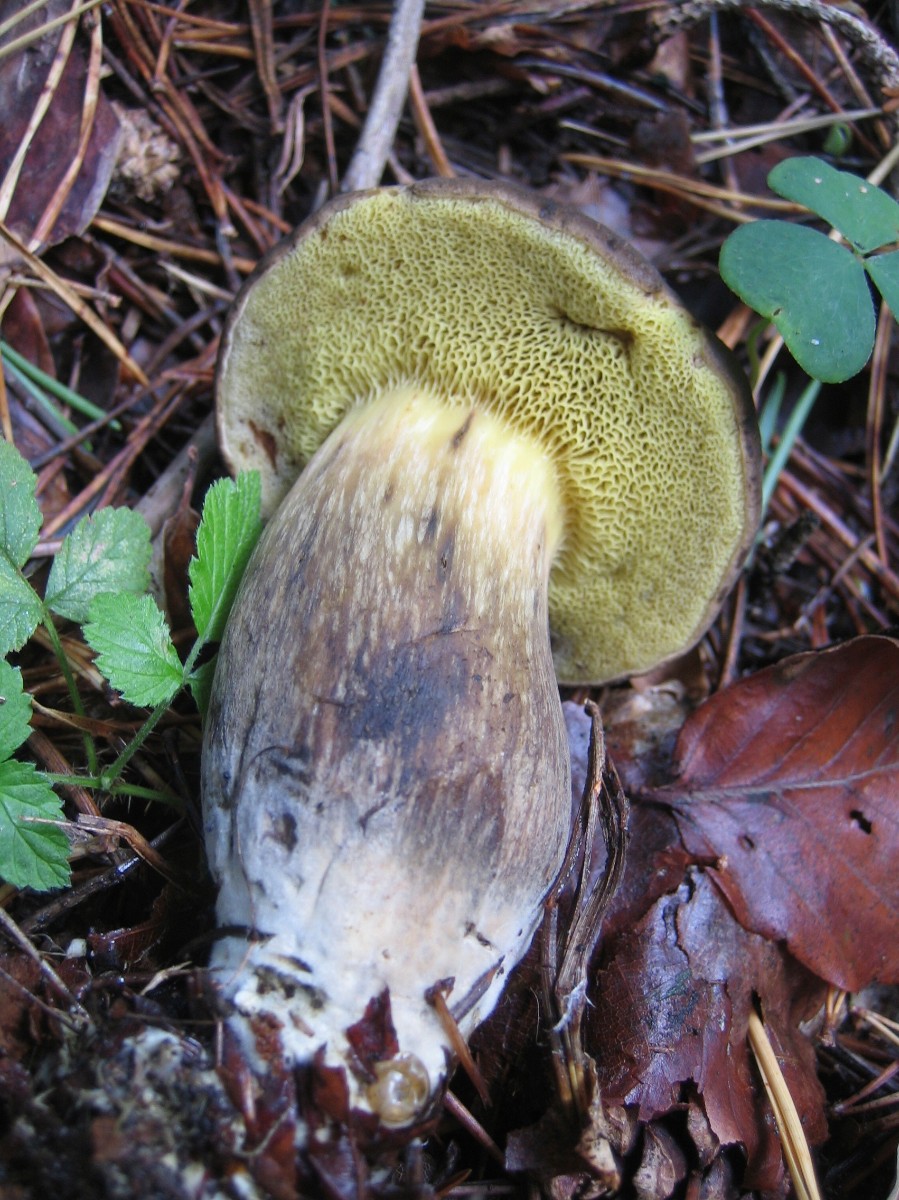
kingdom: Fungi
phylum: Basidiomycota
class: Agaricomycetes
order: Boletales
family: Boletaceae
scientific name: Boletaceae
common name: rørhatfamilien
